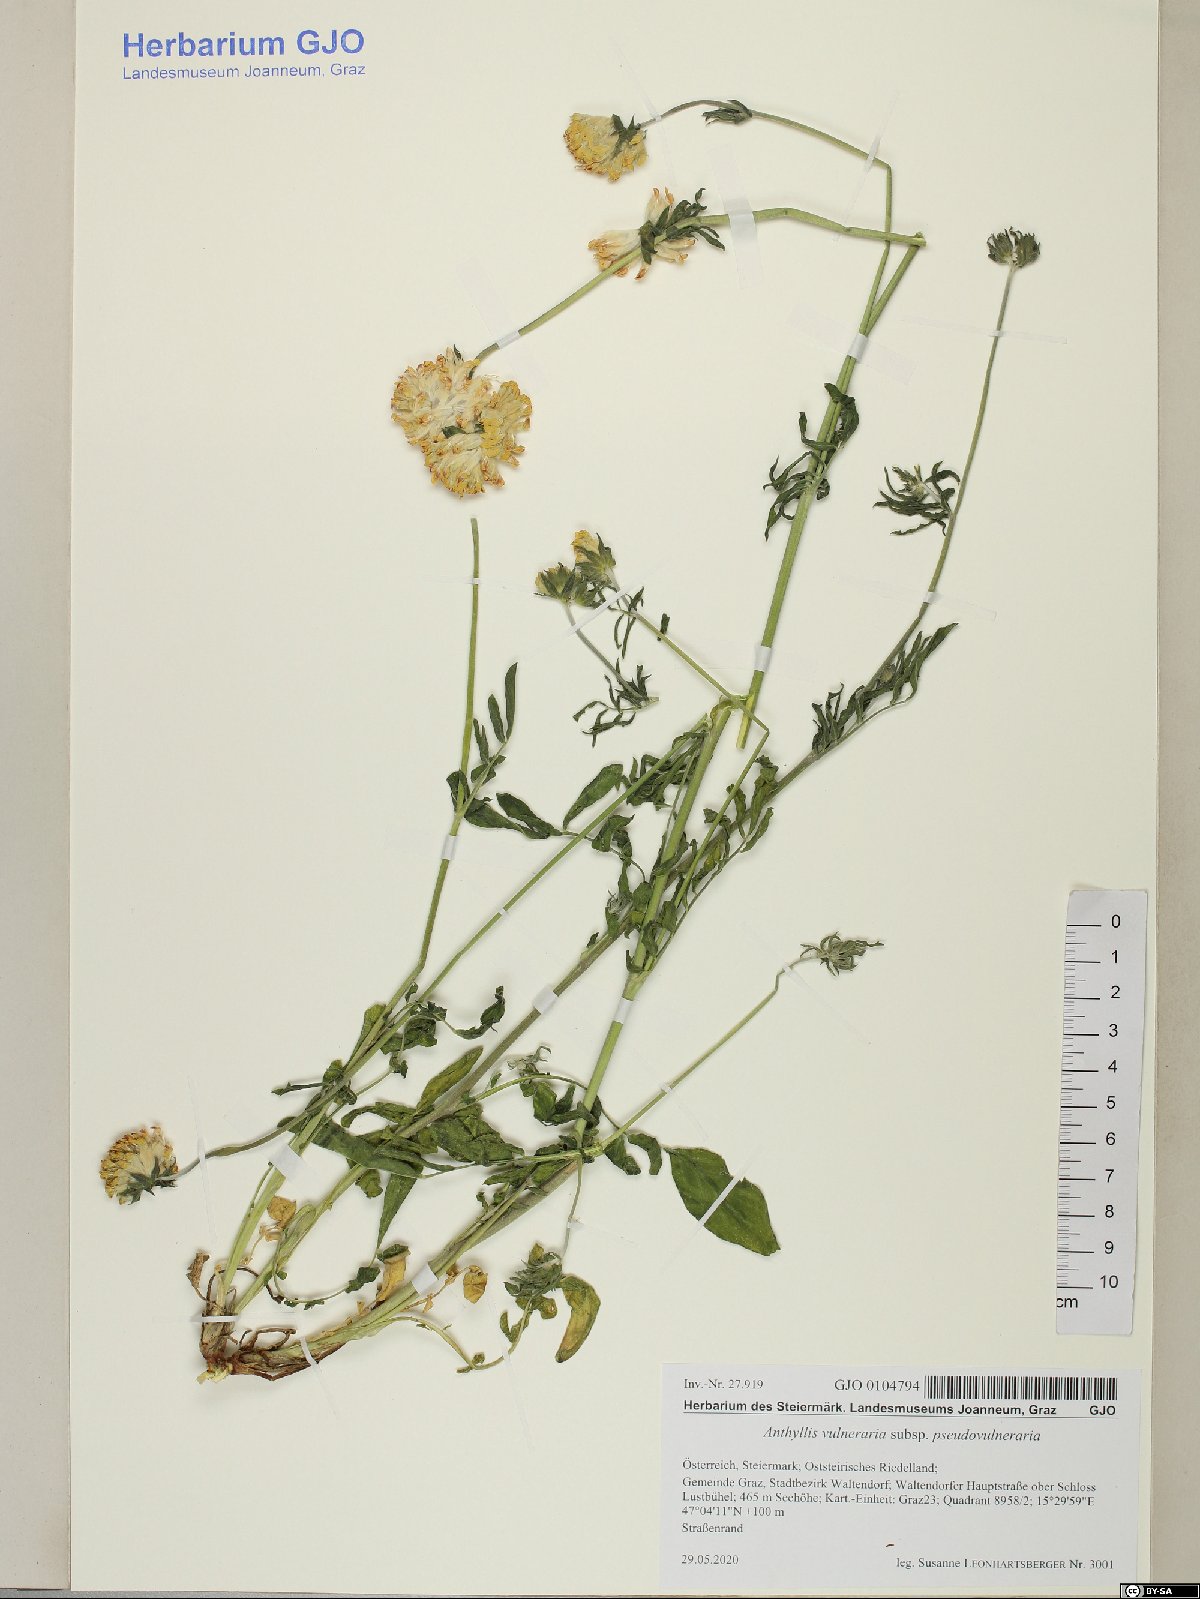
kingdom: Plantae
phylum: Tracheophyta
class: Magnoliopsida
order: Fabales
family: Fabaceae
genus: Anthyllis
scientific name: Anthyllis vulneraria
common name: Kidney vetch
